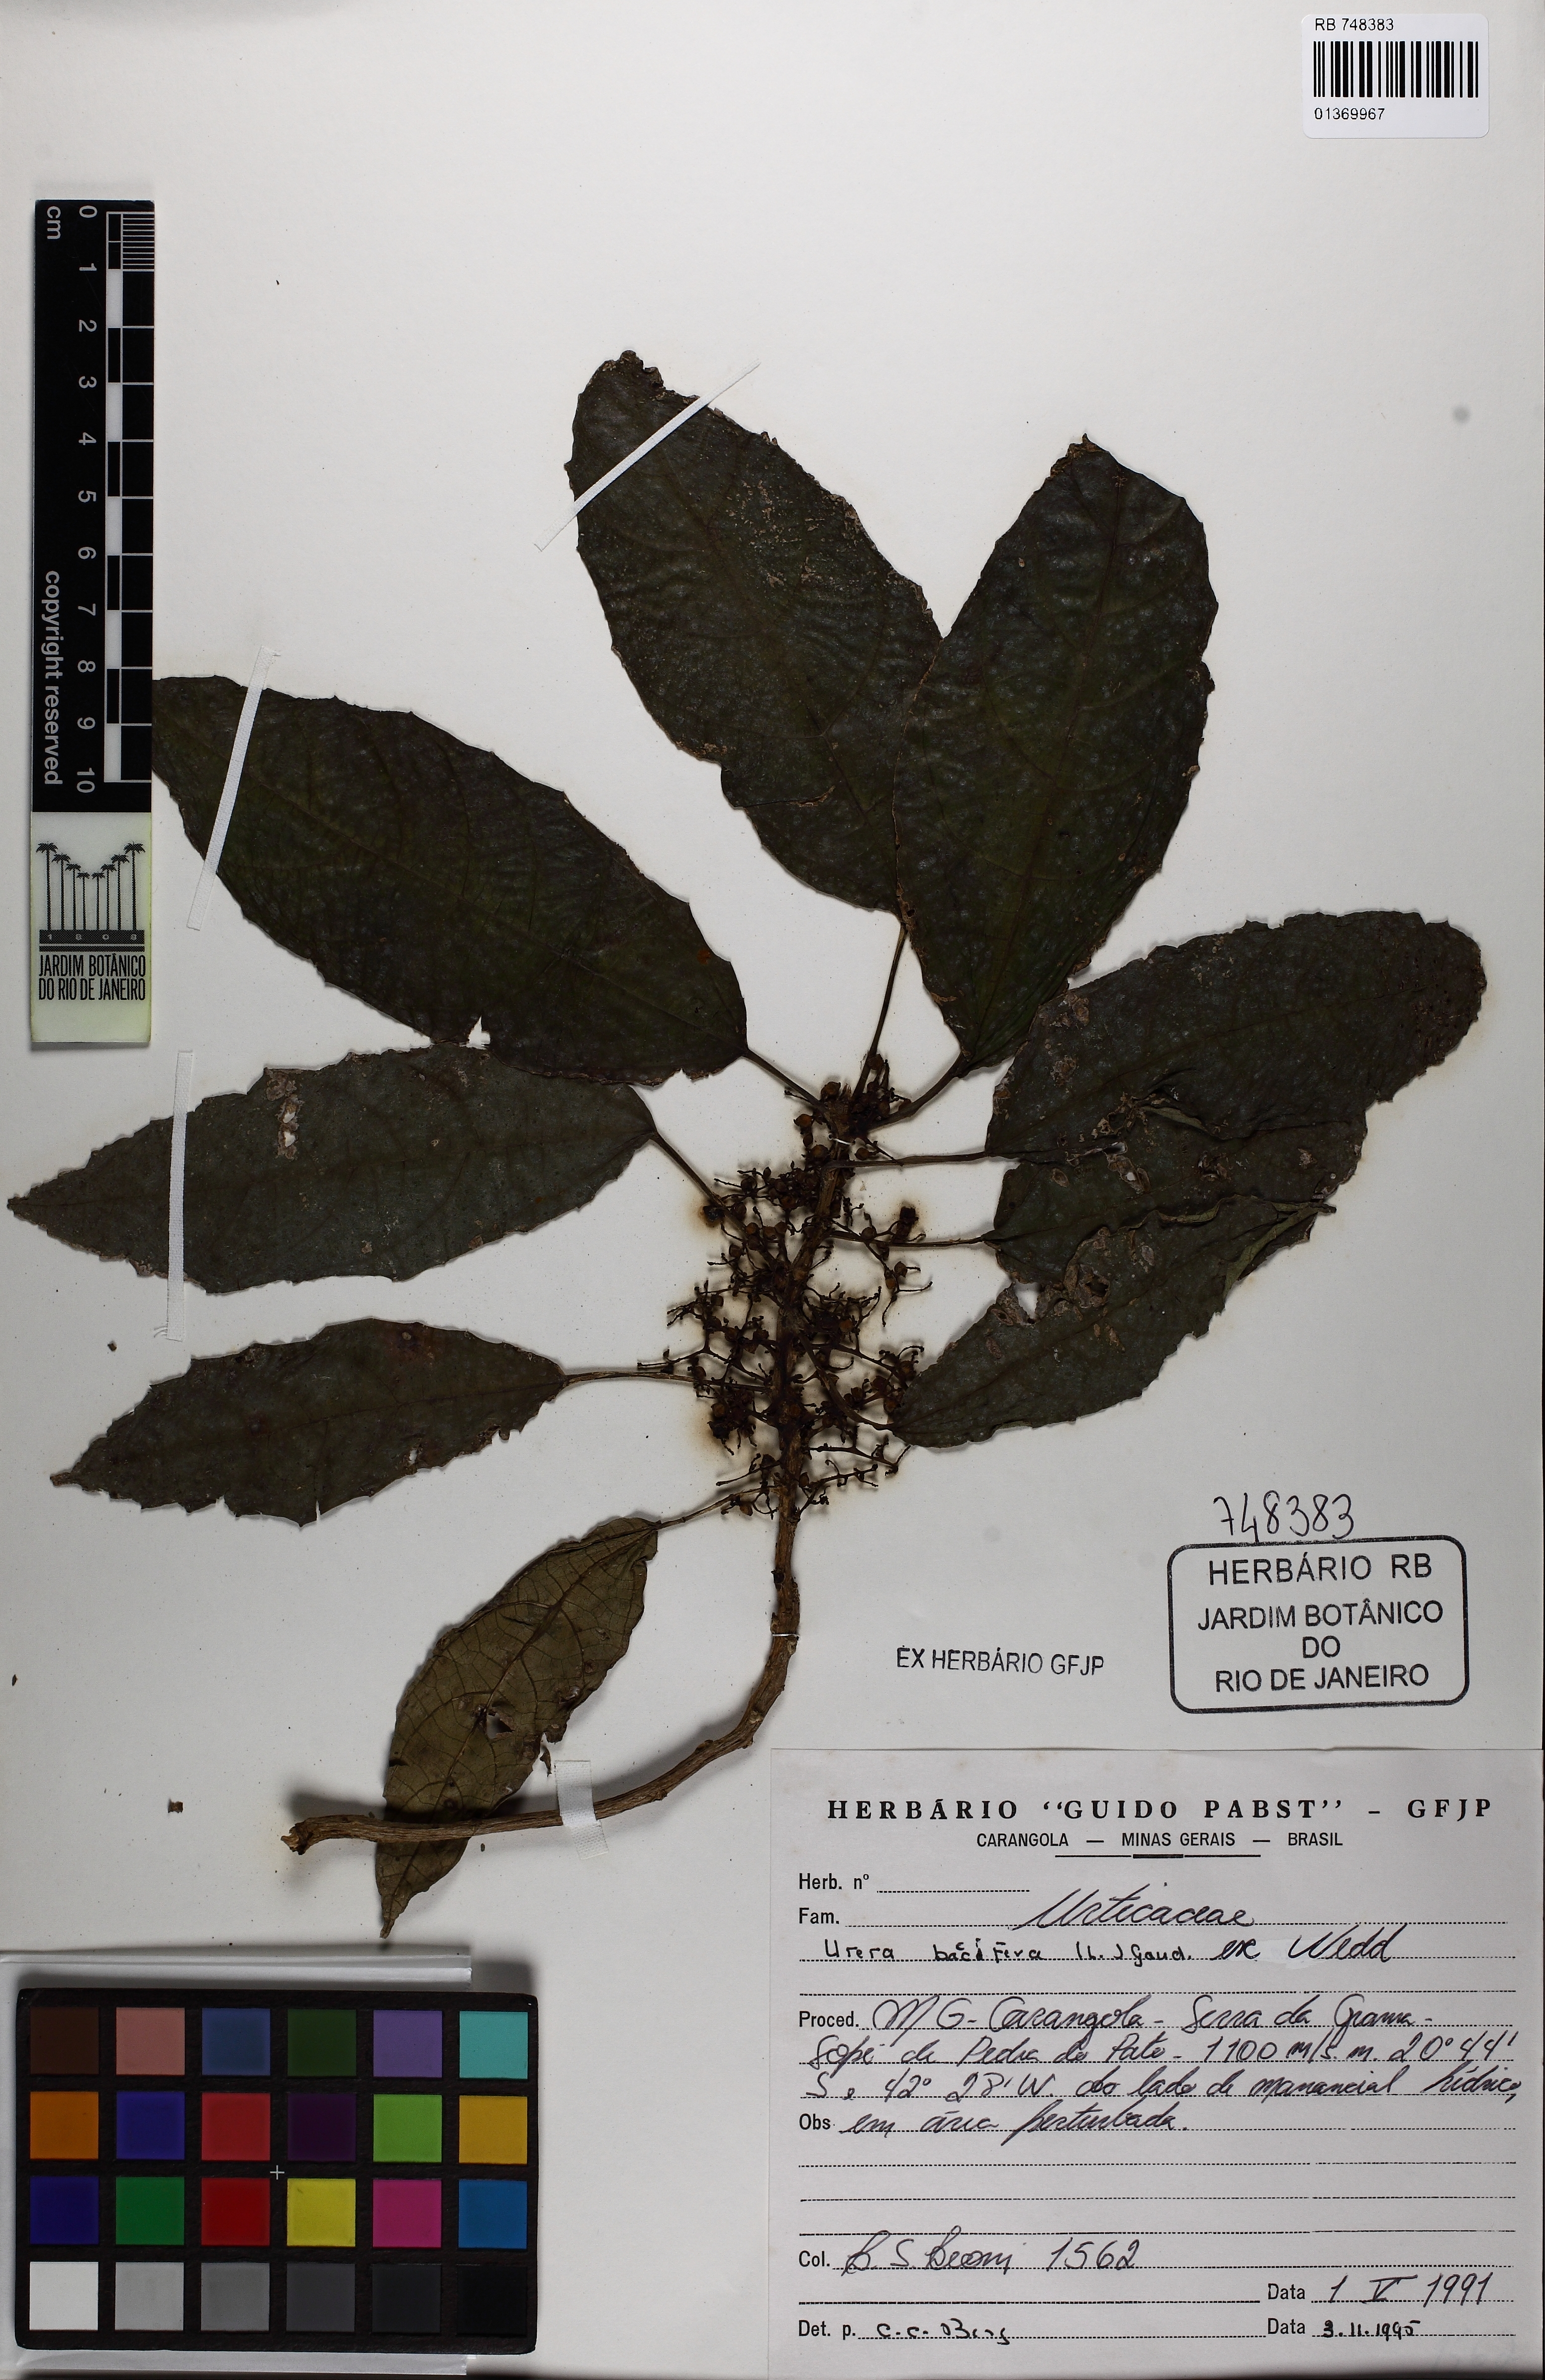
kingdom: Plantae
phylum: Tracheophyta
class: Magnoliopsida
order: Rosales
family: Urticaceae
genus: Urera
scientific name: Urera nitida
